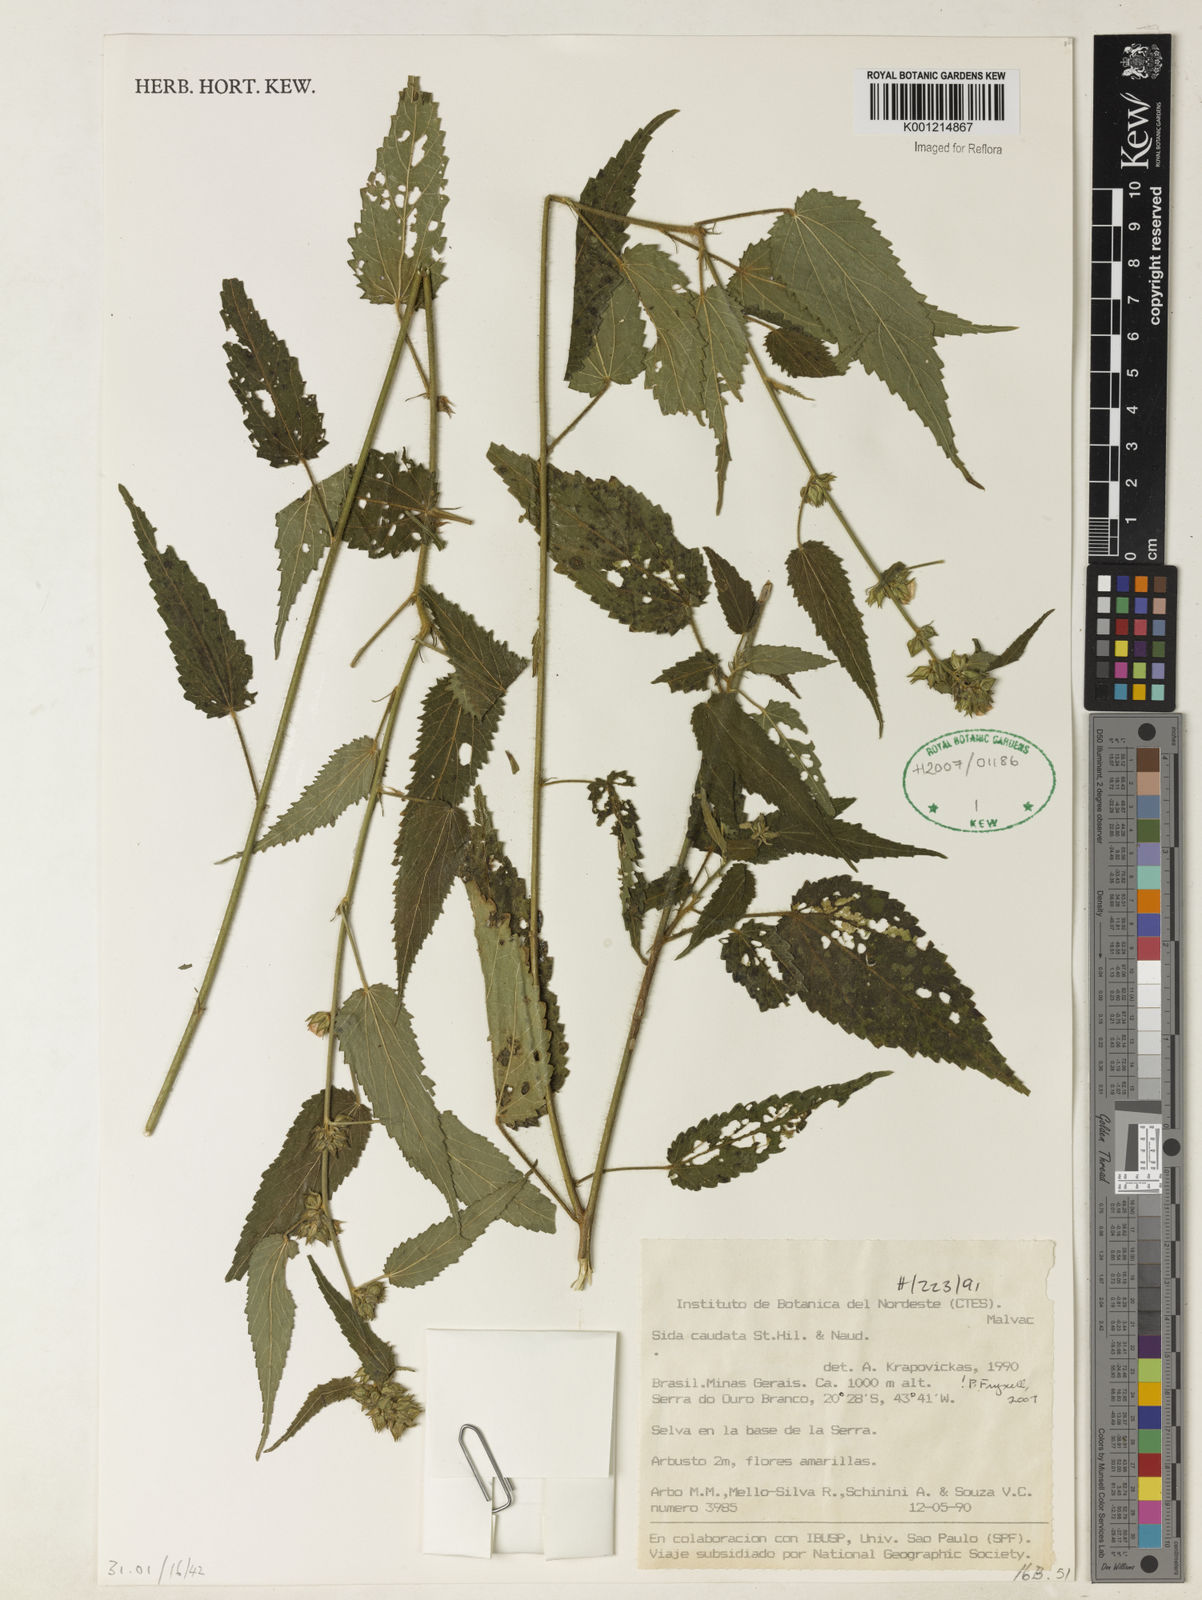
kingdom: Plantae
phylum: Tracheophyta
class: Magnoliopsida
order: Malvales
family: Malvaceae
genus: Sida
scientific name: Sida caudata
